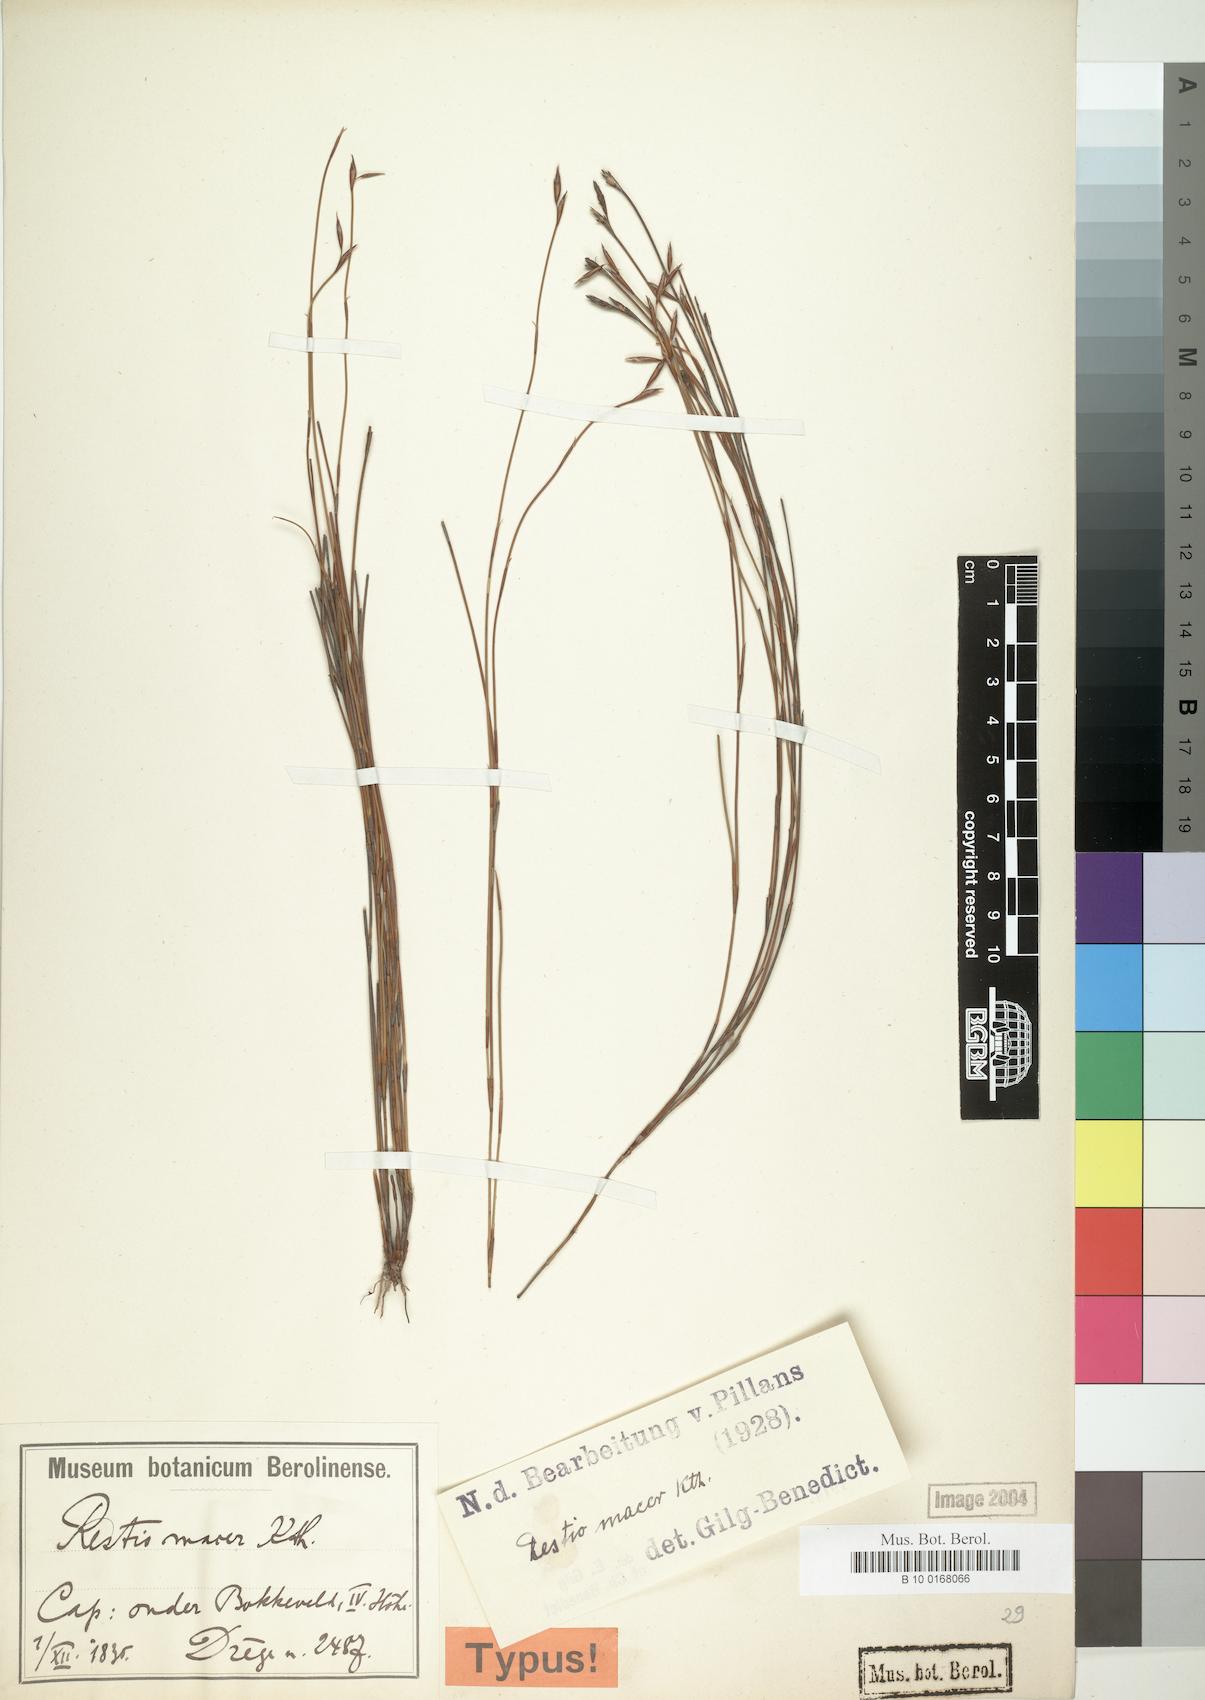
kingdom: Plantae
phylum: Tracheophyta
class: Liliopsida
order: Poales
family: Restionaceae
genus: Restio
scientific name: Restio macer
